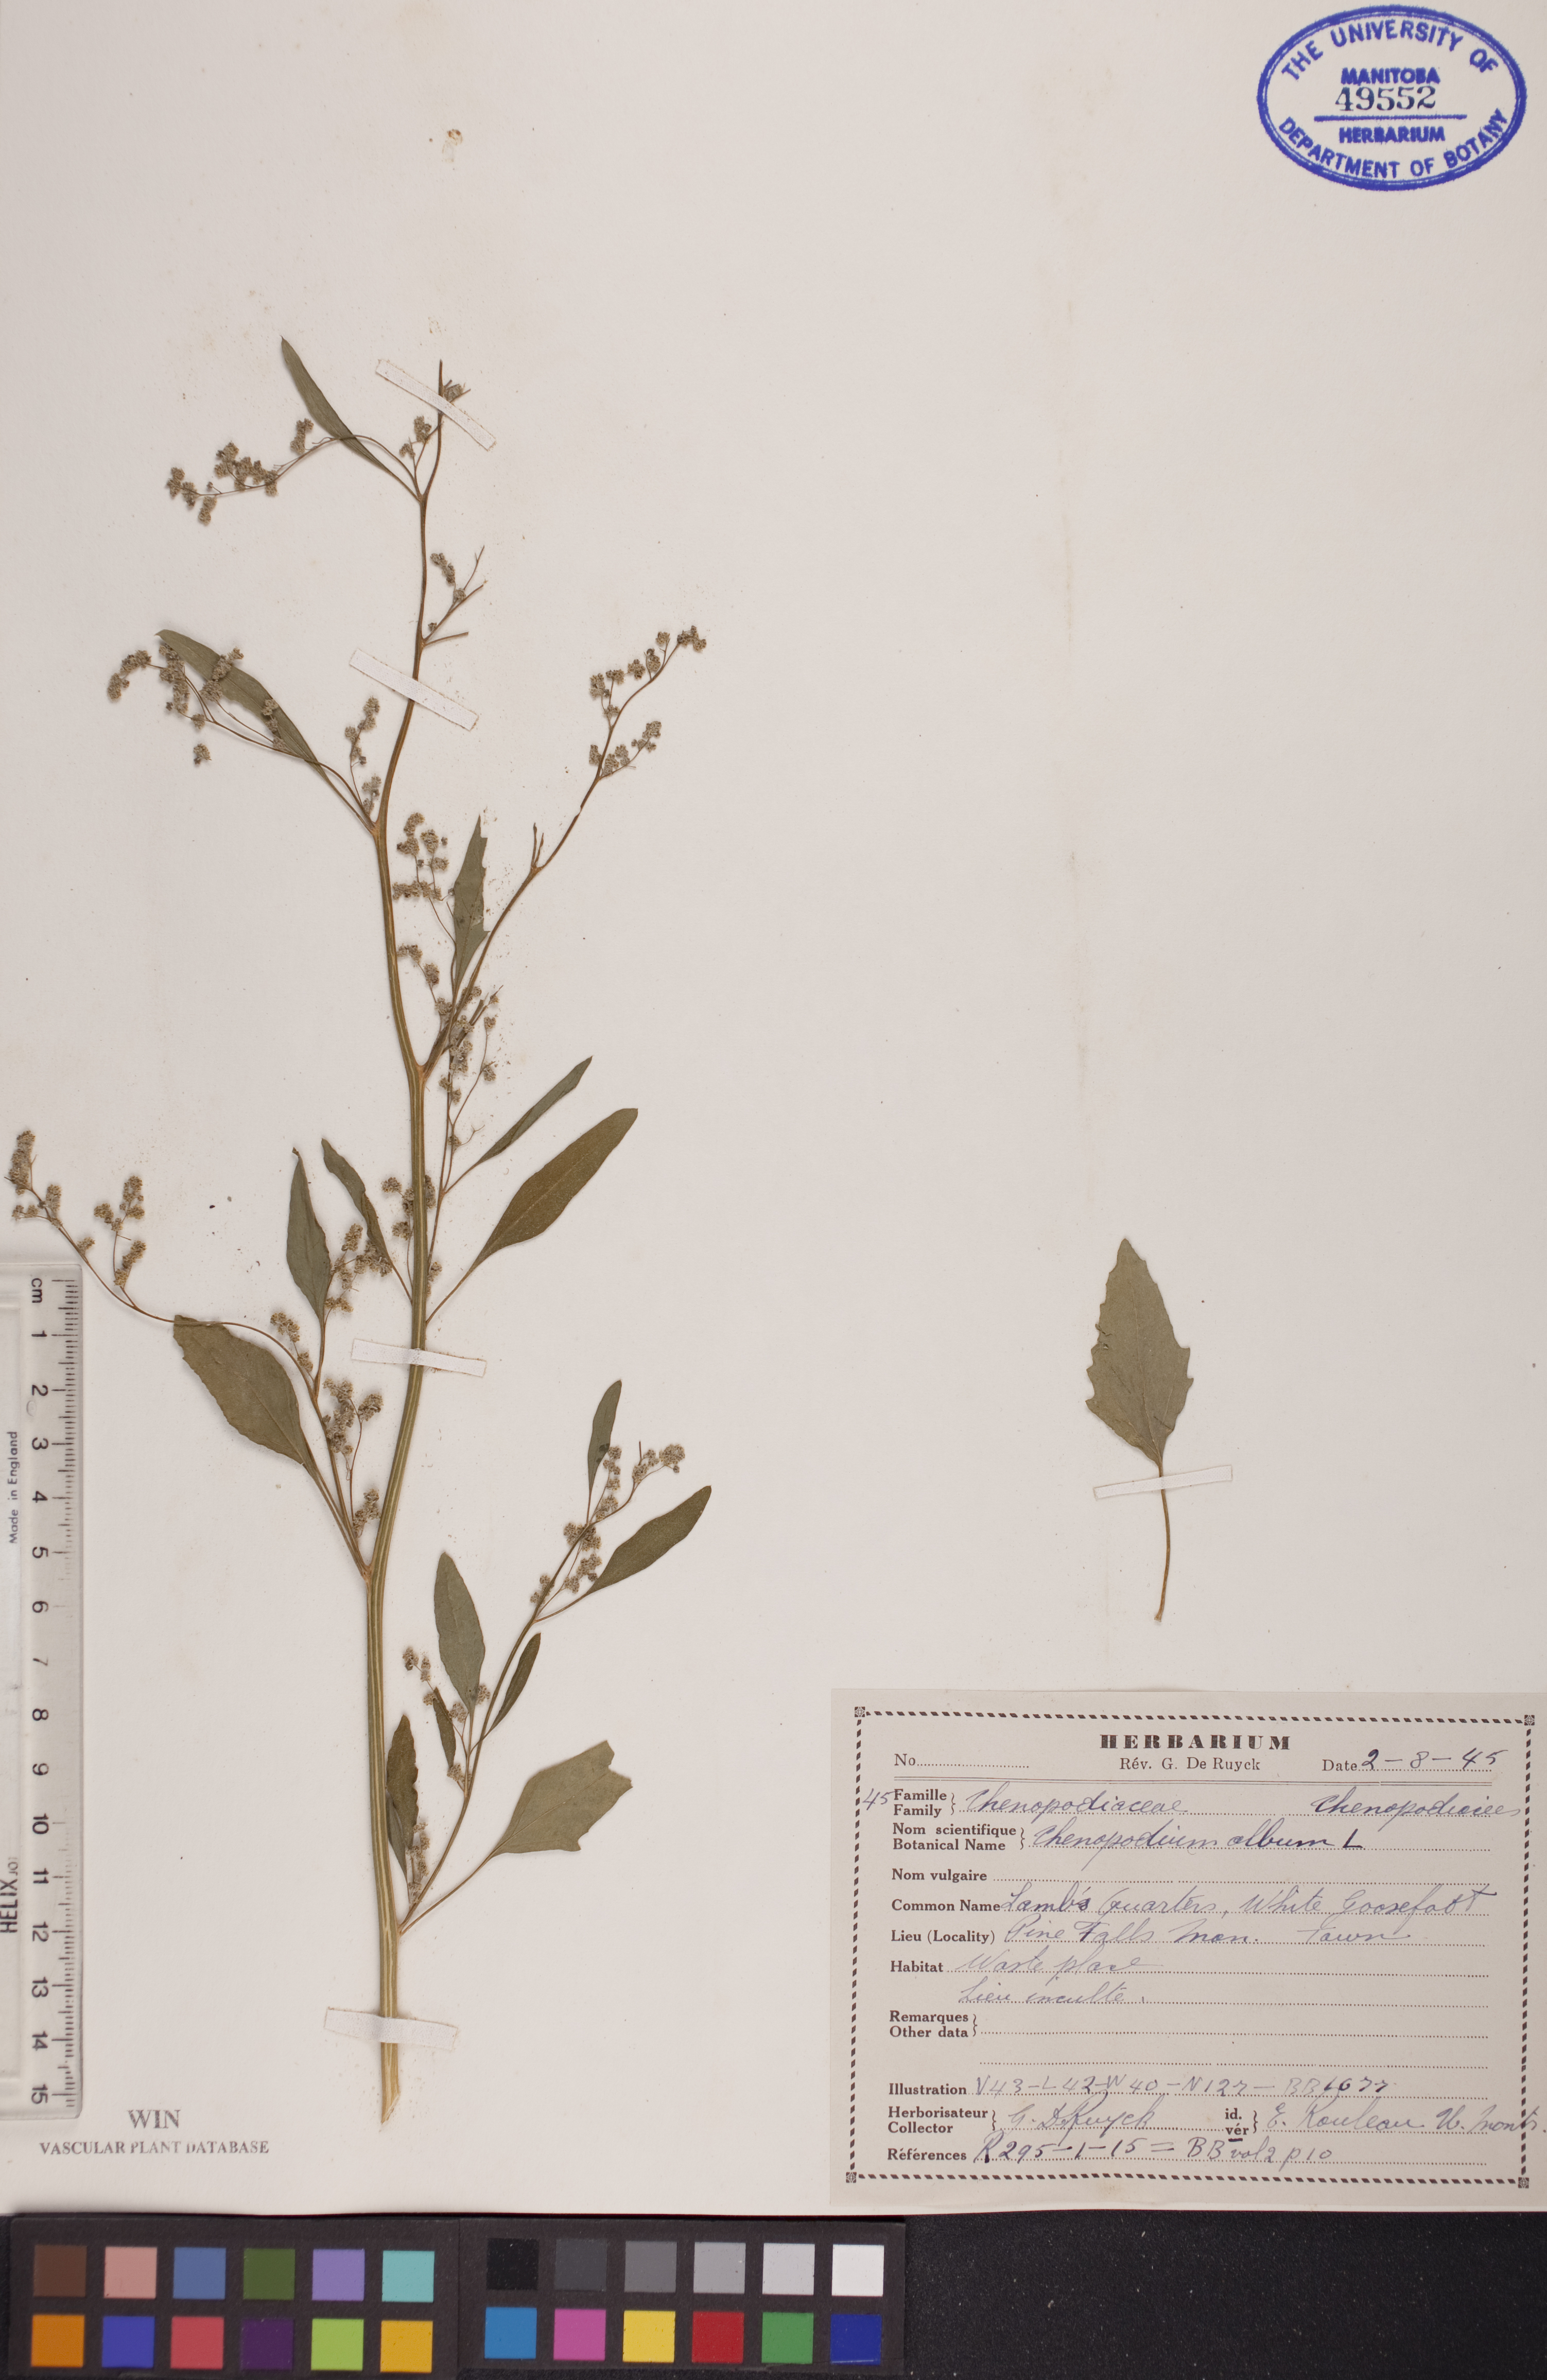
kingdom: Plantae
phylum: Tracheophyta
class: Magnoliopsida
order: Caryophyllales
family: Amaranthaceae
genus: Chenopodium
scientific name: Chenopodium album
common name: Fat-hen
